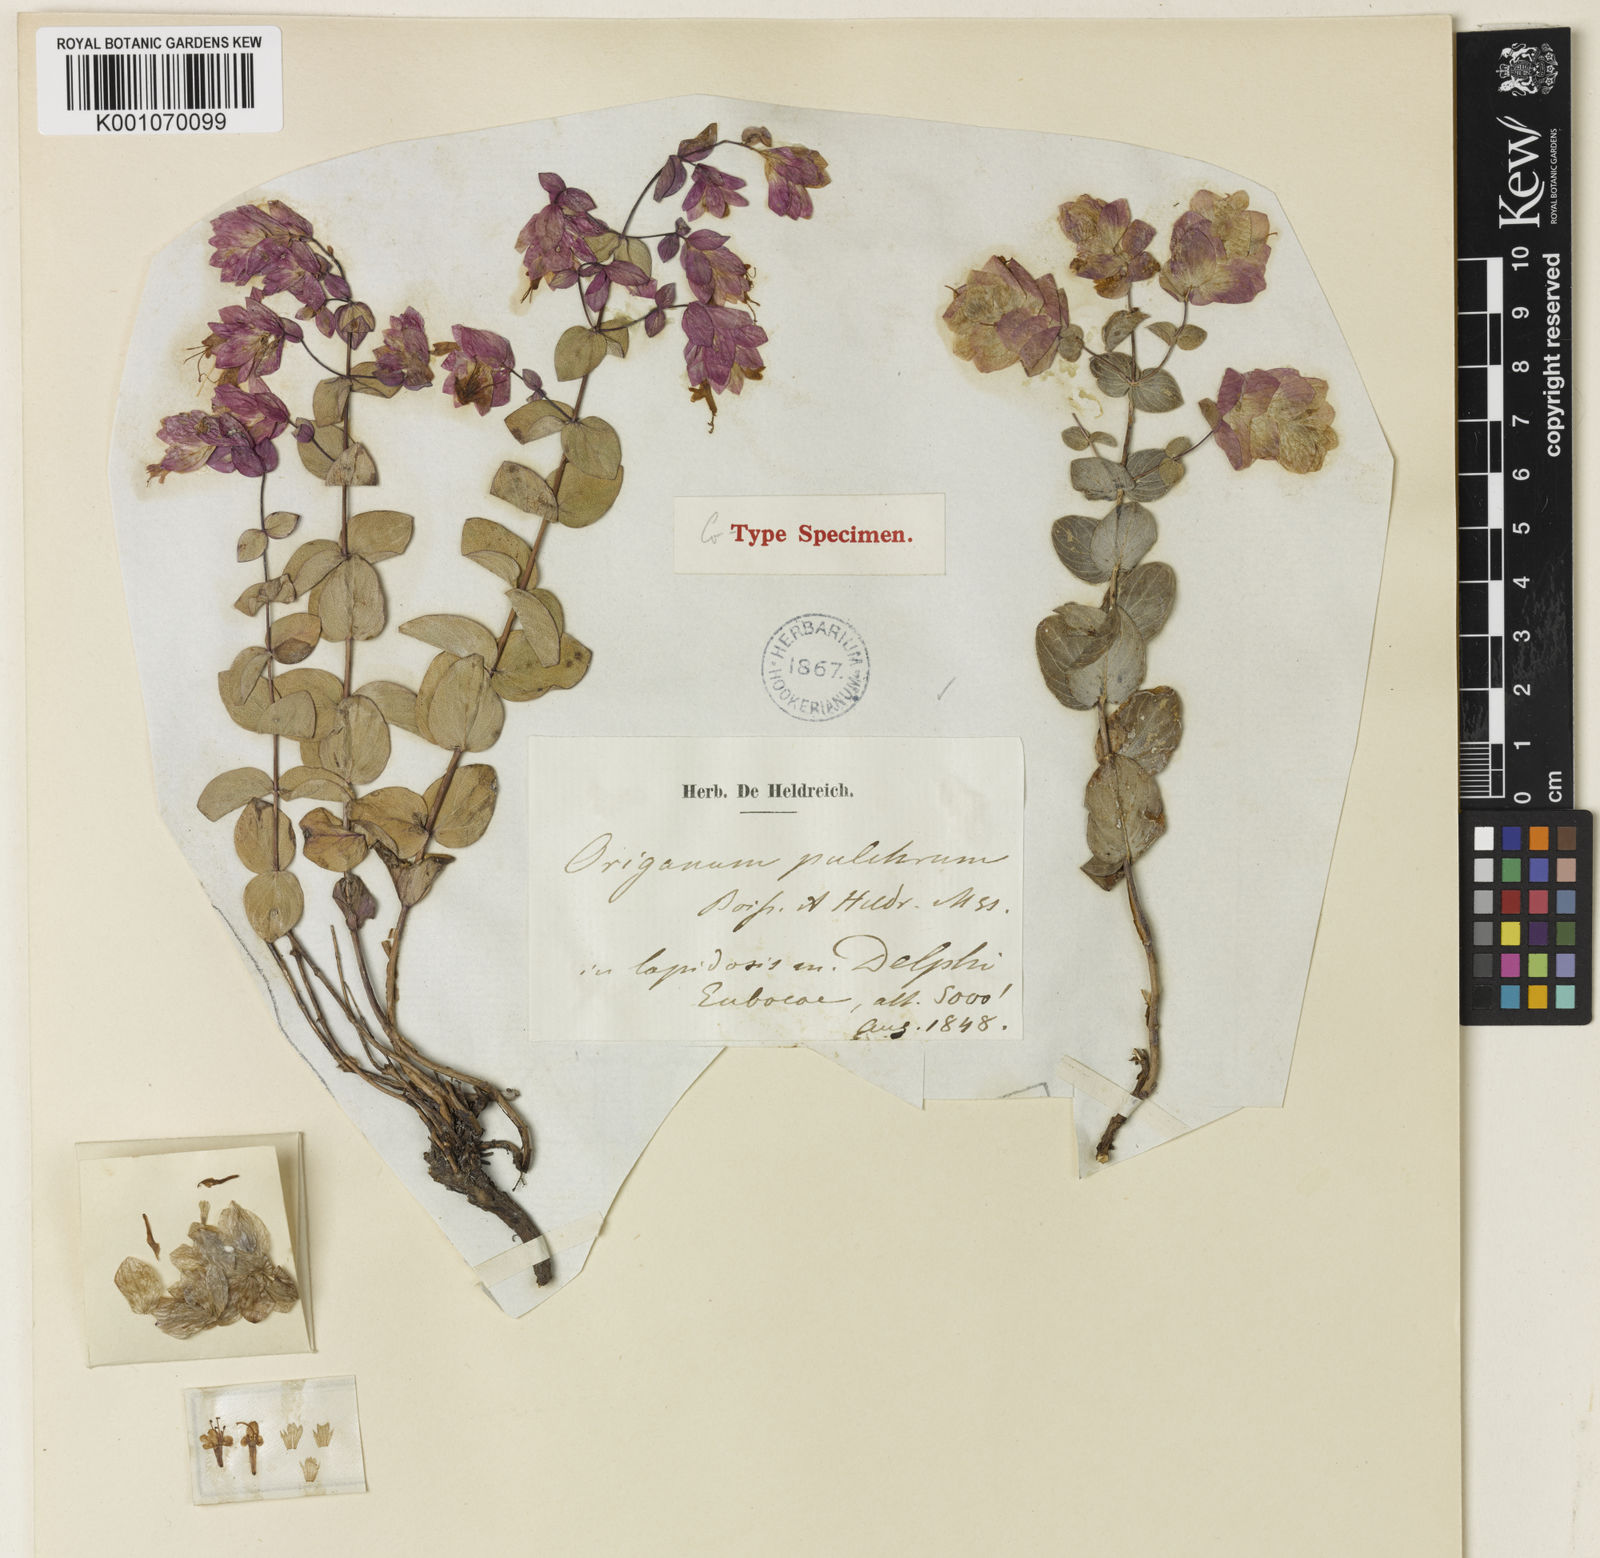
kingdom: Plantae
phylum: Tracheophyta
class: Magnoliopsida
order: Lamiales
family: Lamiaceae
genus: Origanum
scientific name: Origanum scabrum
